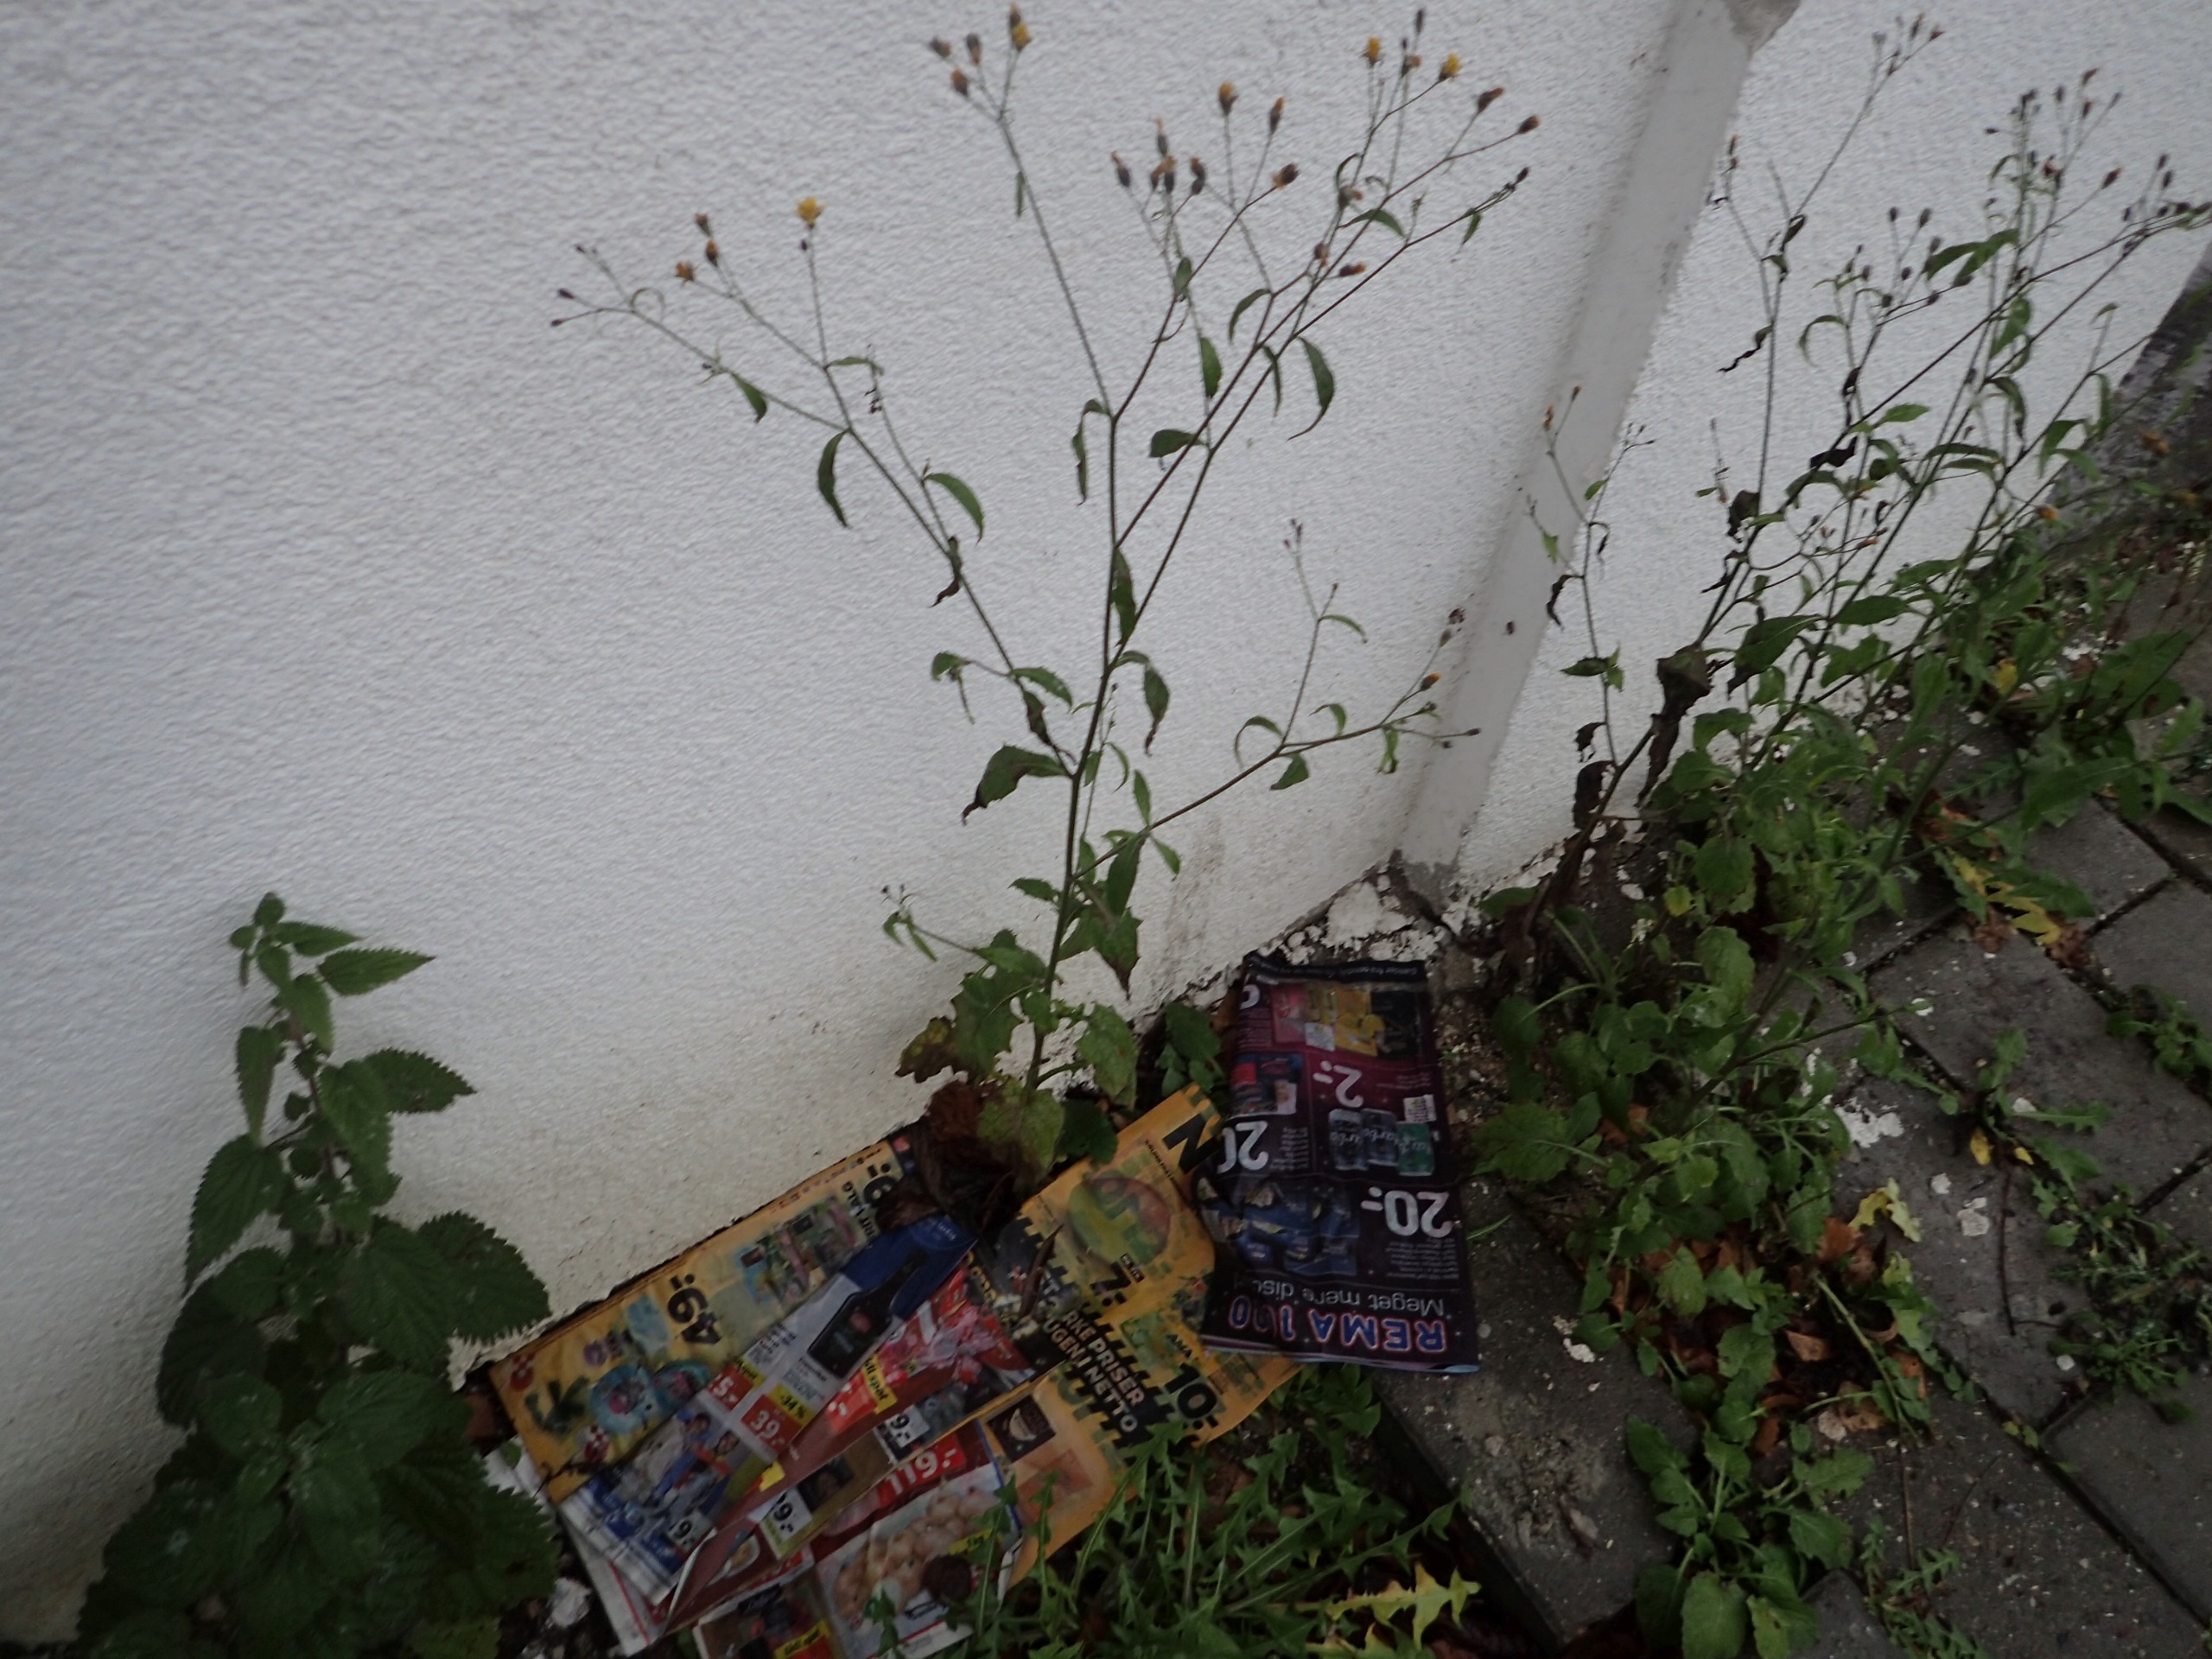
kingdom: Plantae
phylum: Tracheophyta
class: Magnoliopsida
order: Asterales
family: Asteraceae
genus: Lapsana
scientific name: Lapsana communis
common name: Haremad
